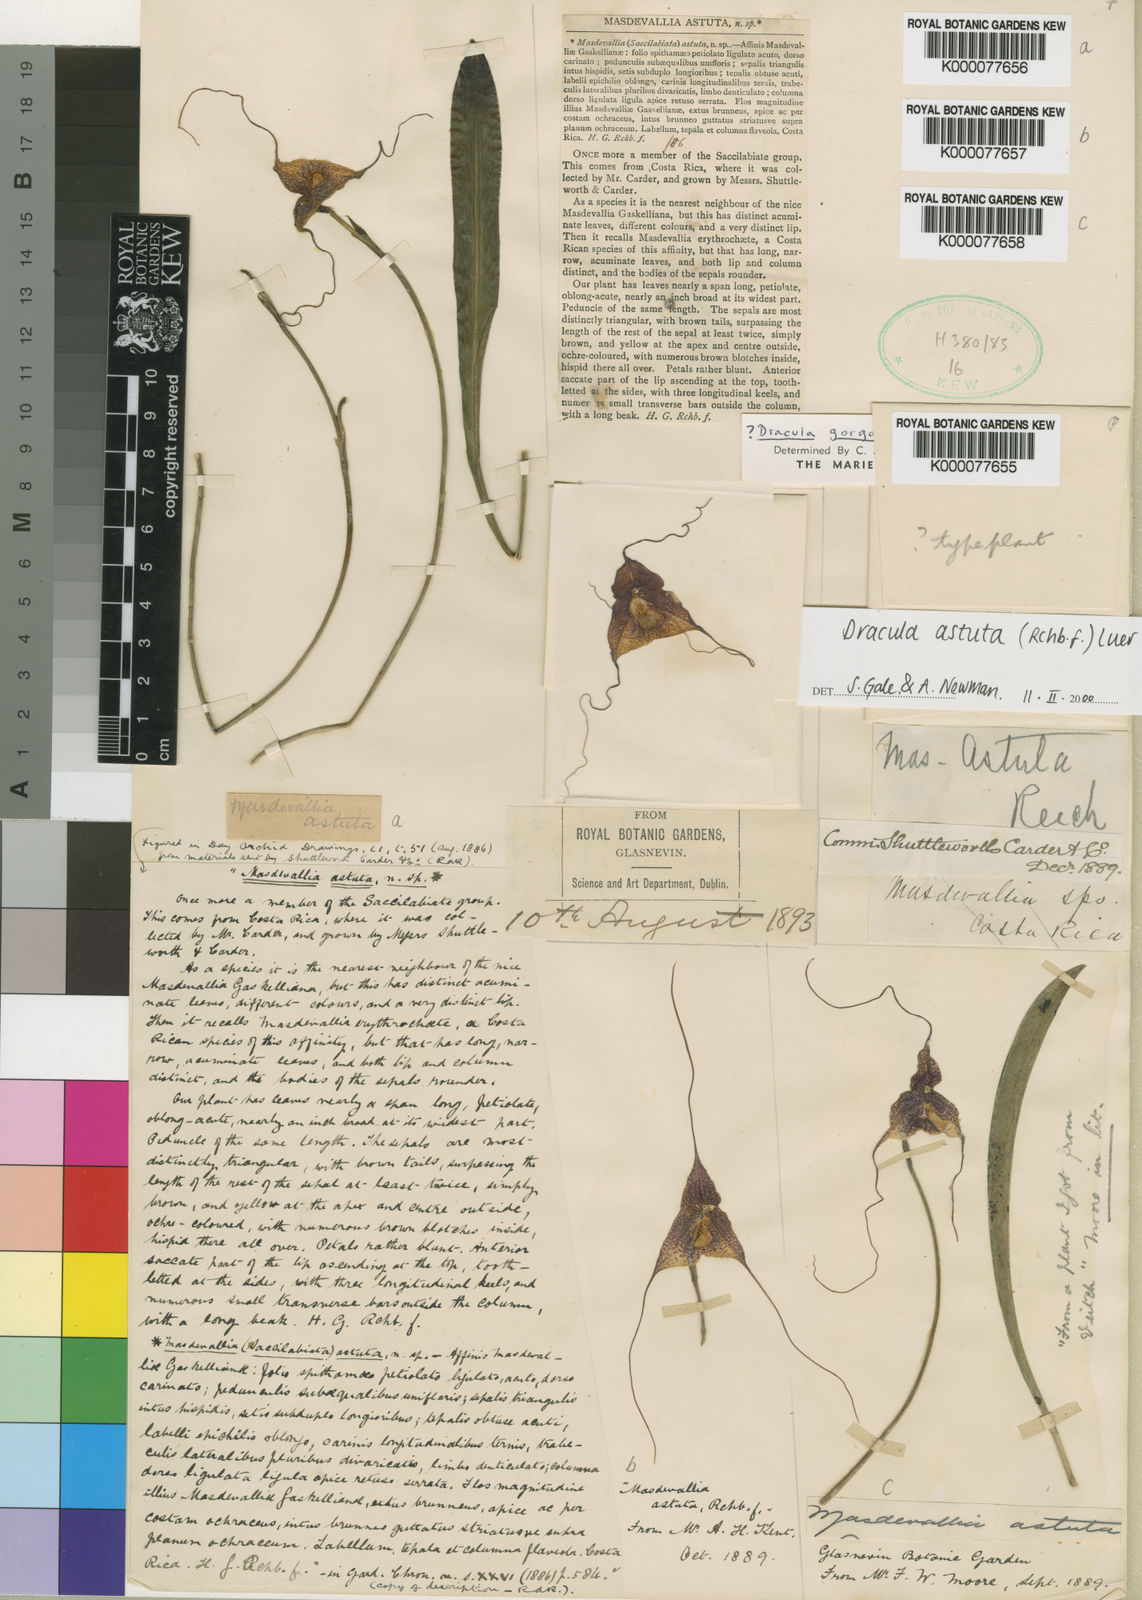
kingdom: Plantae
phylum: Tracheophyta
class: Liliopsida
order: Asparagales
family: Orchidaceae
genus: Dracula
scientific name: Dracula astuta
